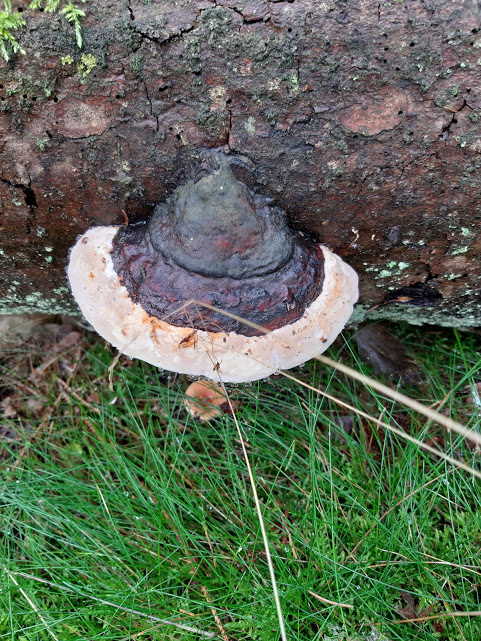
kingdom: Fungi
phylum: Basidiomycota
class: Agaricomycetes
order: Polyporales
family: Fomitopsidaceae
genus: Fomitopsis
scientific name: Fomitopsis pinicola
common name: randbæltet hovporesvamp
